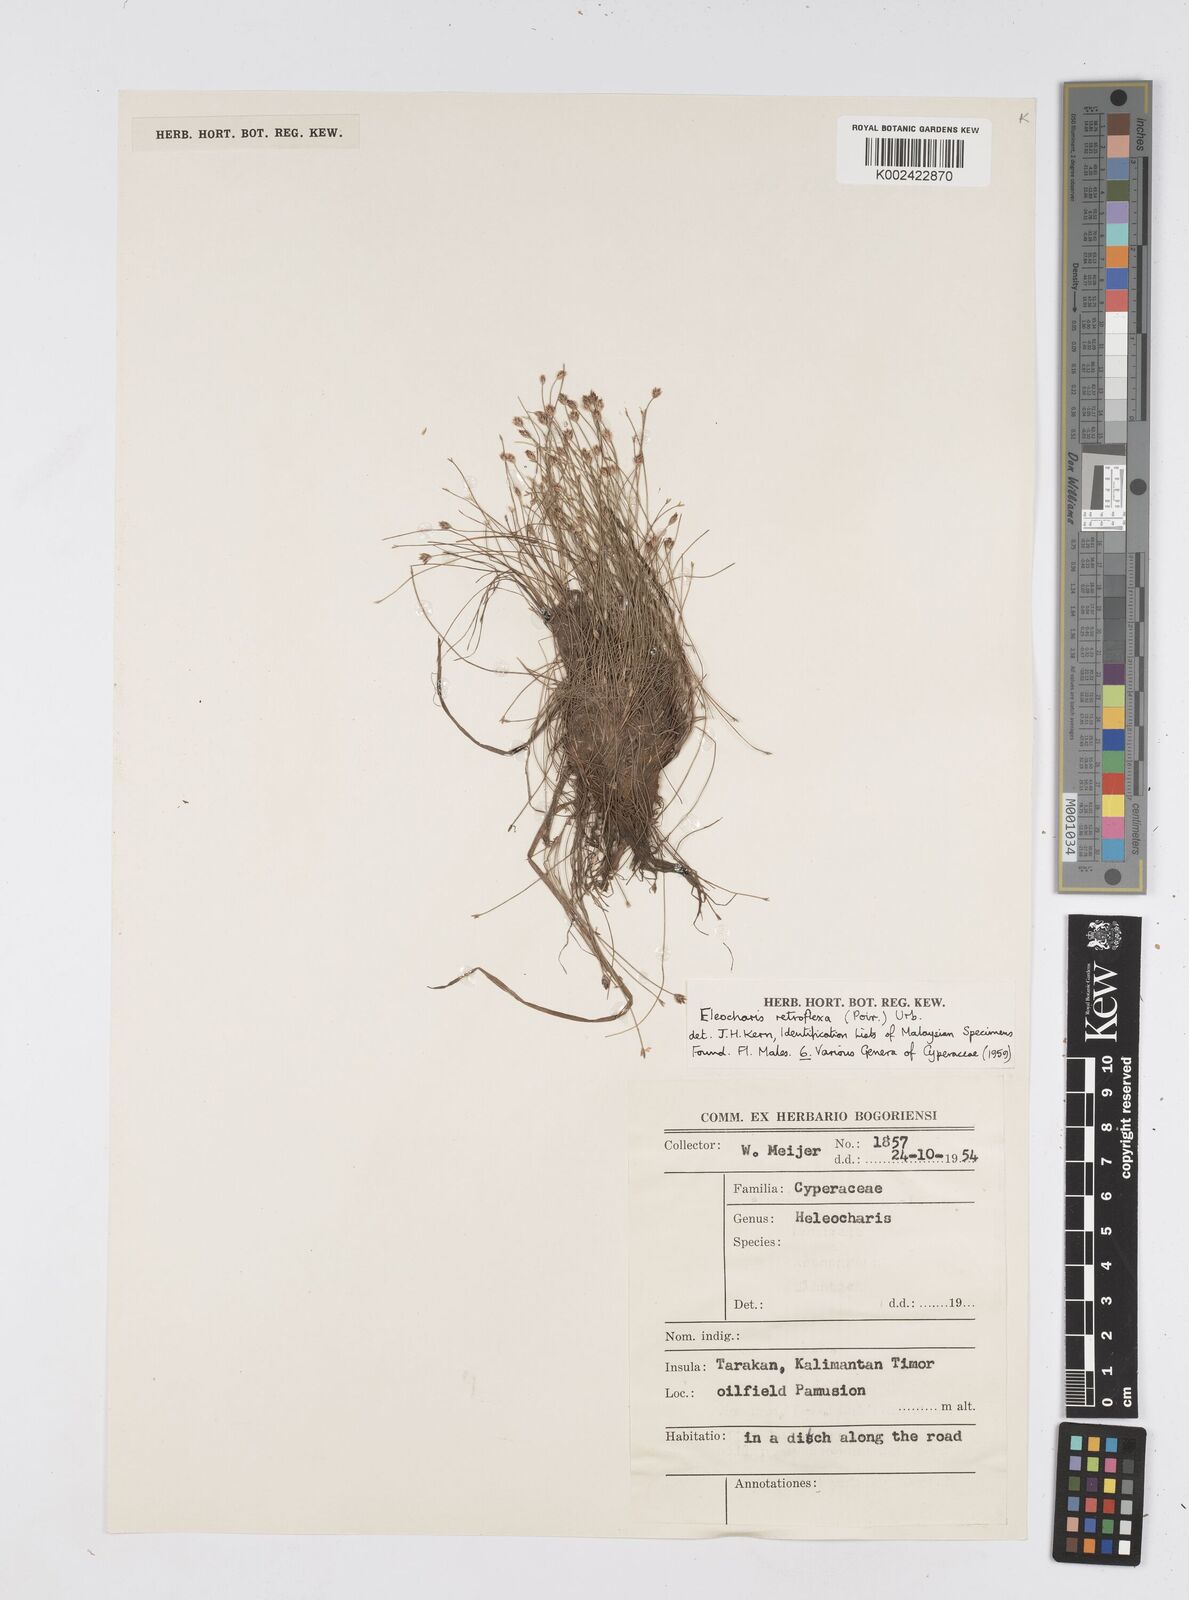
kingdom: Plantae
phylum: Tracheophyta
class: Liliopsida
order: Poales
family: Cyperaceae
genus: Eleocharis
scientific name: Eleocharis retroflexa
